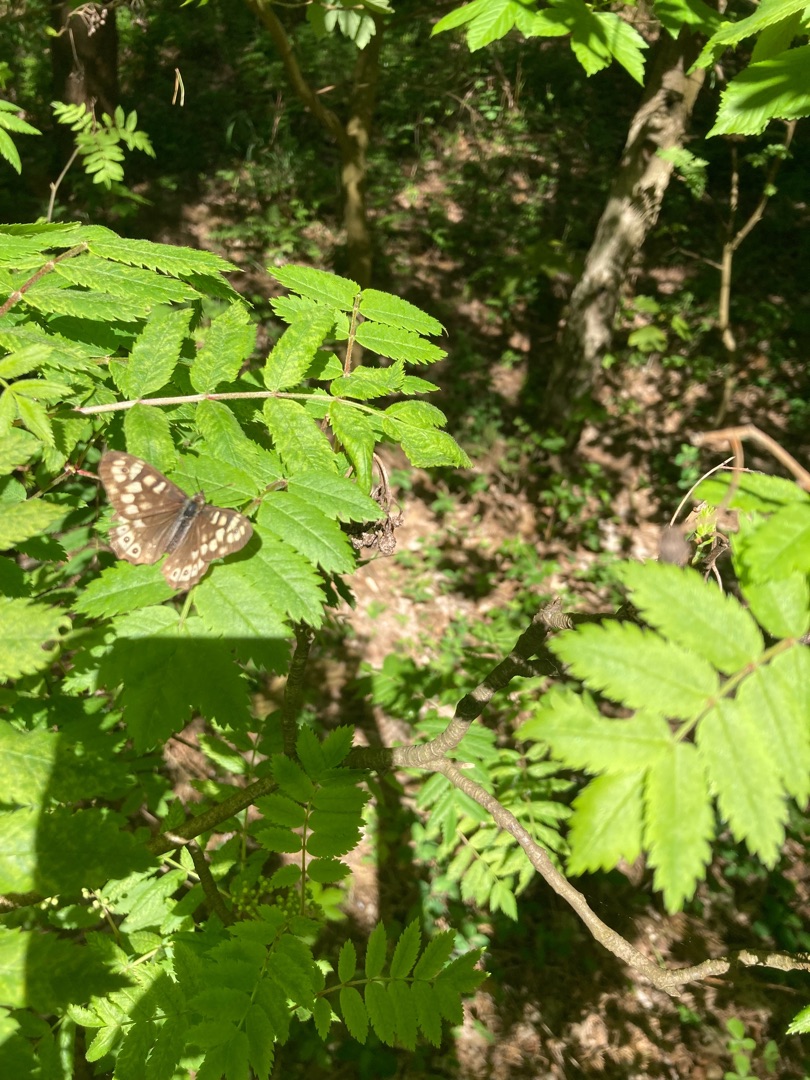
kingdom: Animalia
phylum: Arthropoda
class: Insecta
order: Lepidoptera
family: Nymphalidae
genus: Pararge
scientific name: Pararge aegeria
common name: Skovrandøje
